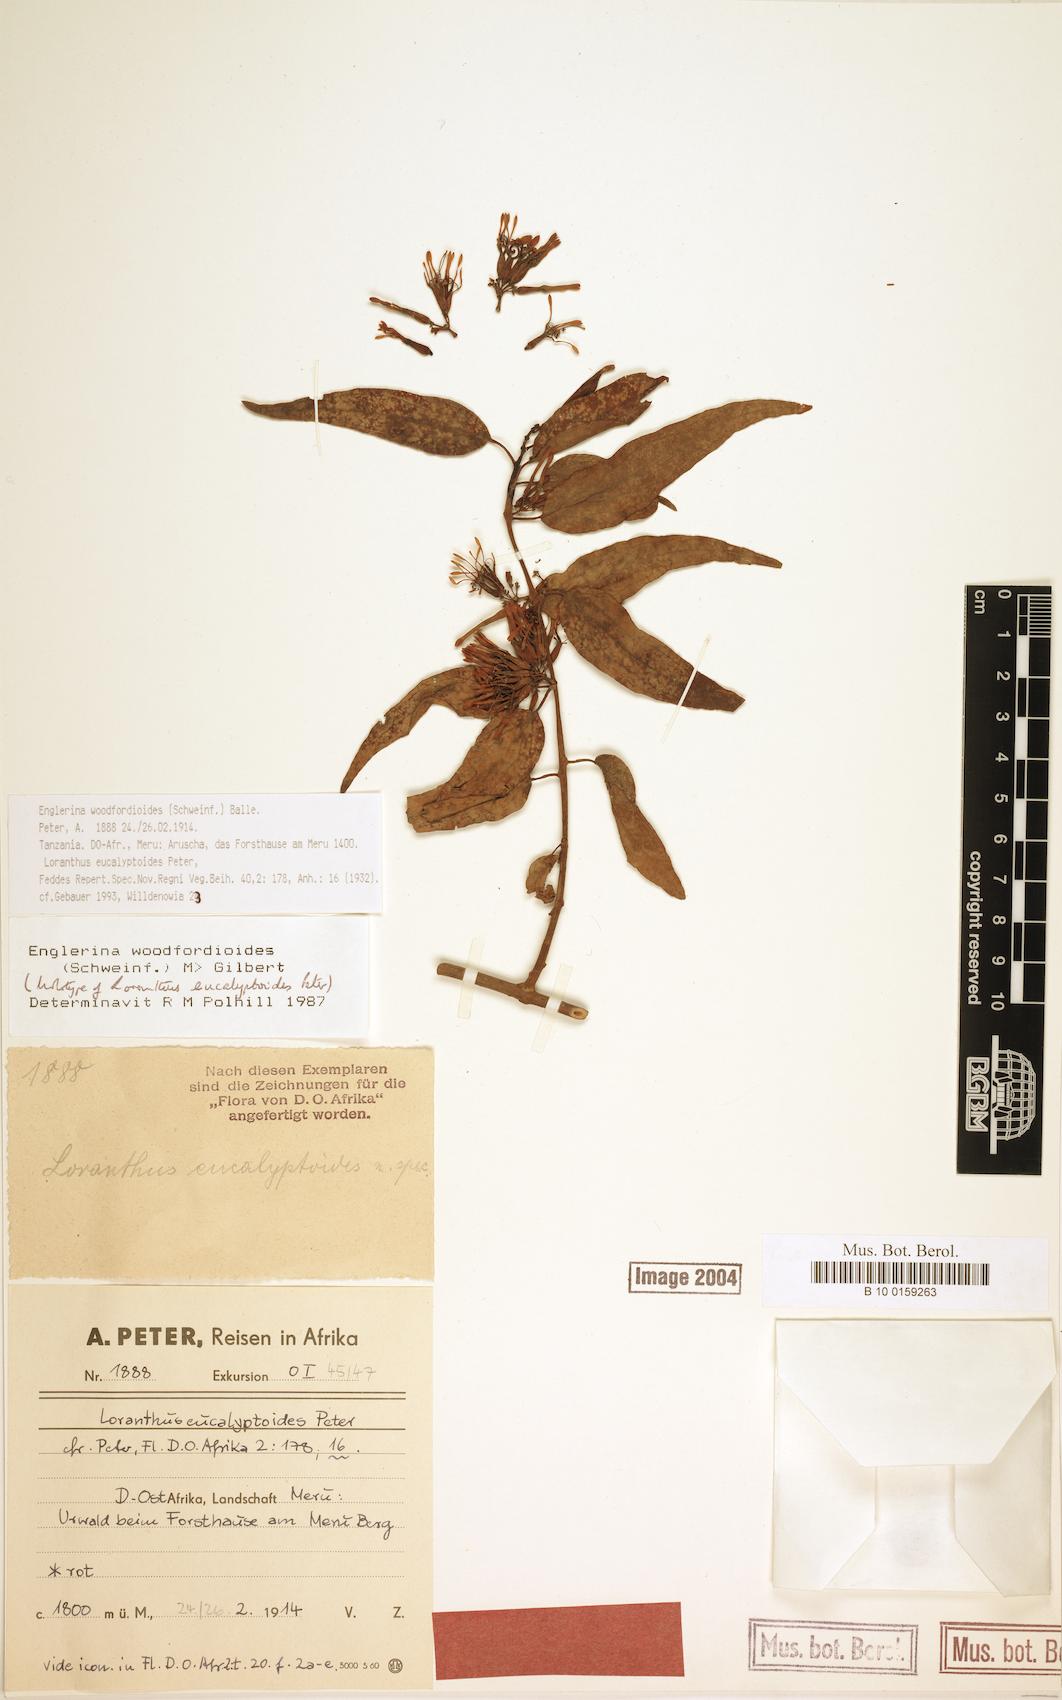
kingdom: Plantae
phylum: Tracheophyta
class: Magnoliopsida
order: Santalales
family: Loranthaceae
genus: Englerina
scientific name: Englerina woodfordioides
